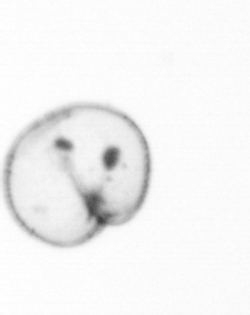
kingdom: Chromista
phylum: Myzozoa
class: Dinophyceae
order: Noctilucales
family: Noctilucaceae
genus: Noctiluca
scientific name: Noctiluca scintillans
